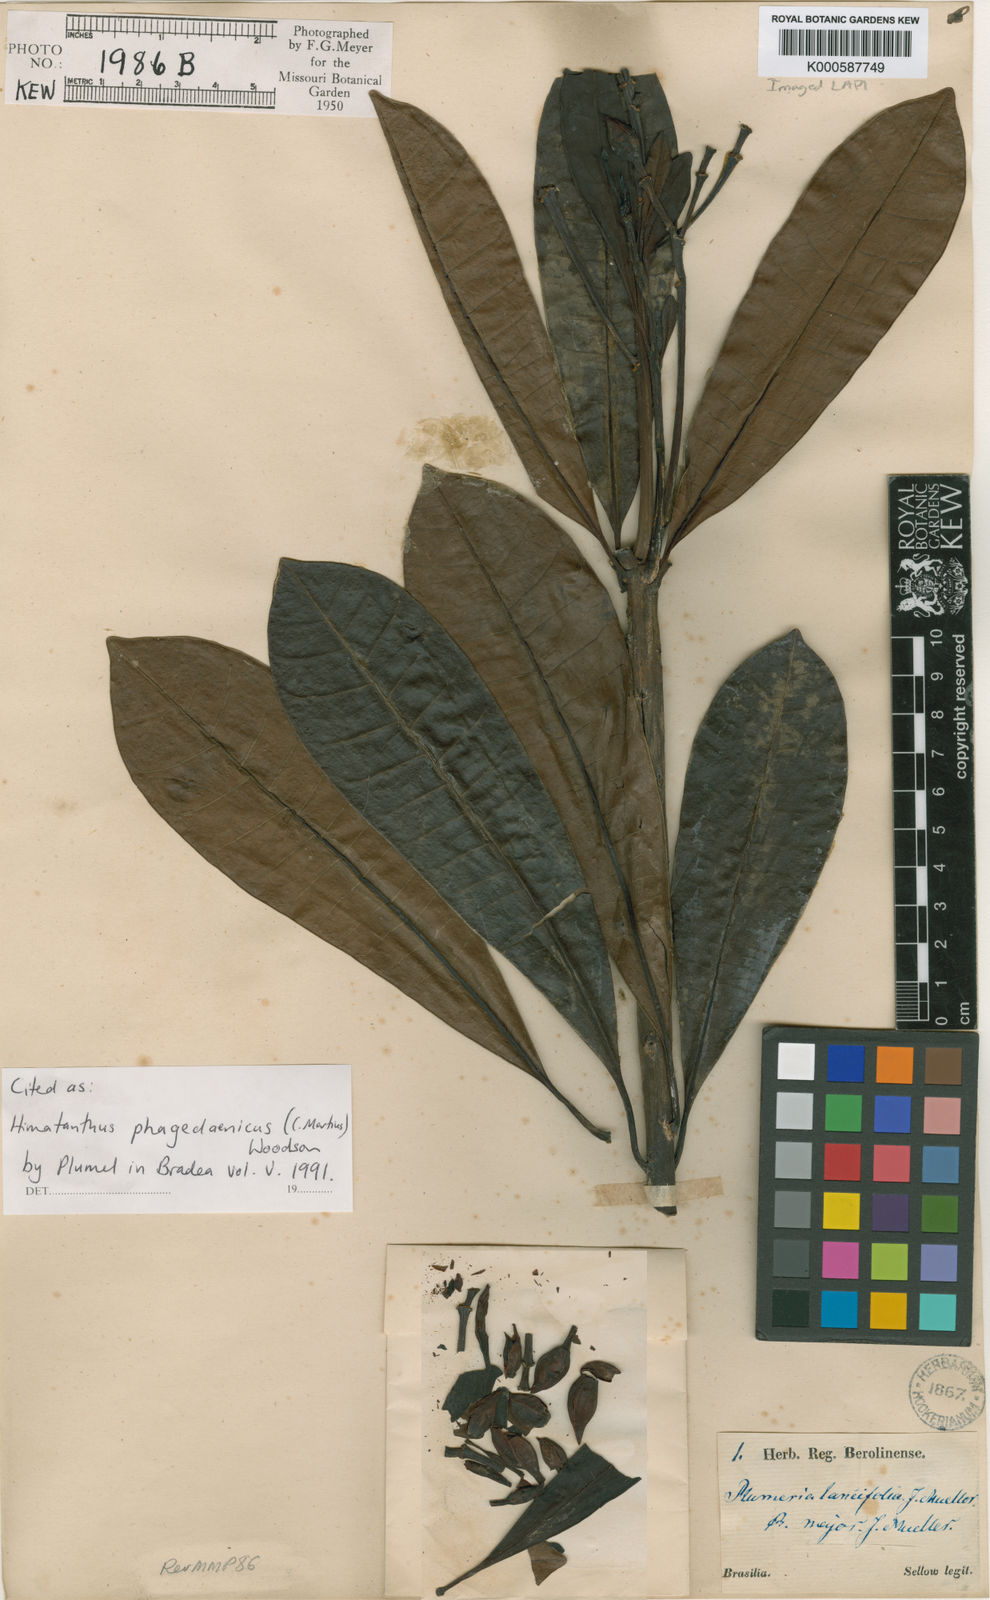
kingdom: Plantae
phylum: Tracheophyta
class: Magnoliopsida
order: Gentianales
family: Apocynaceae
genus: Himatanthus
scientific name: Himatanthus phagedaenicus
